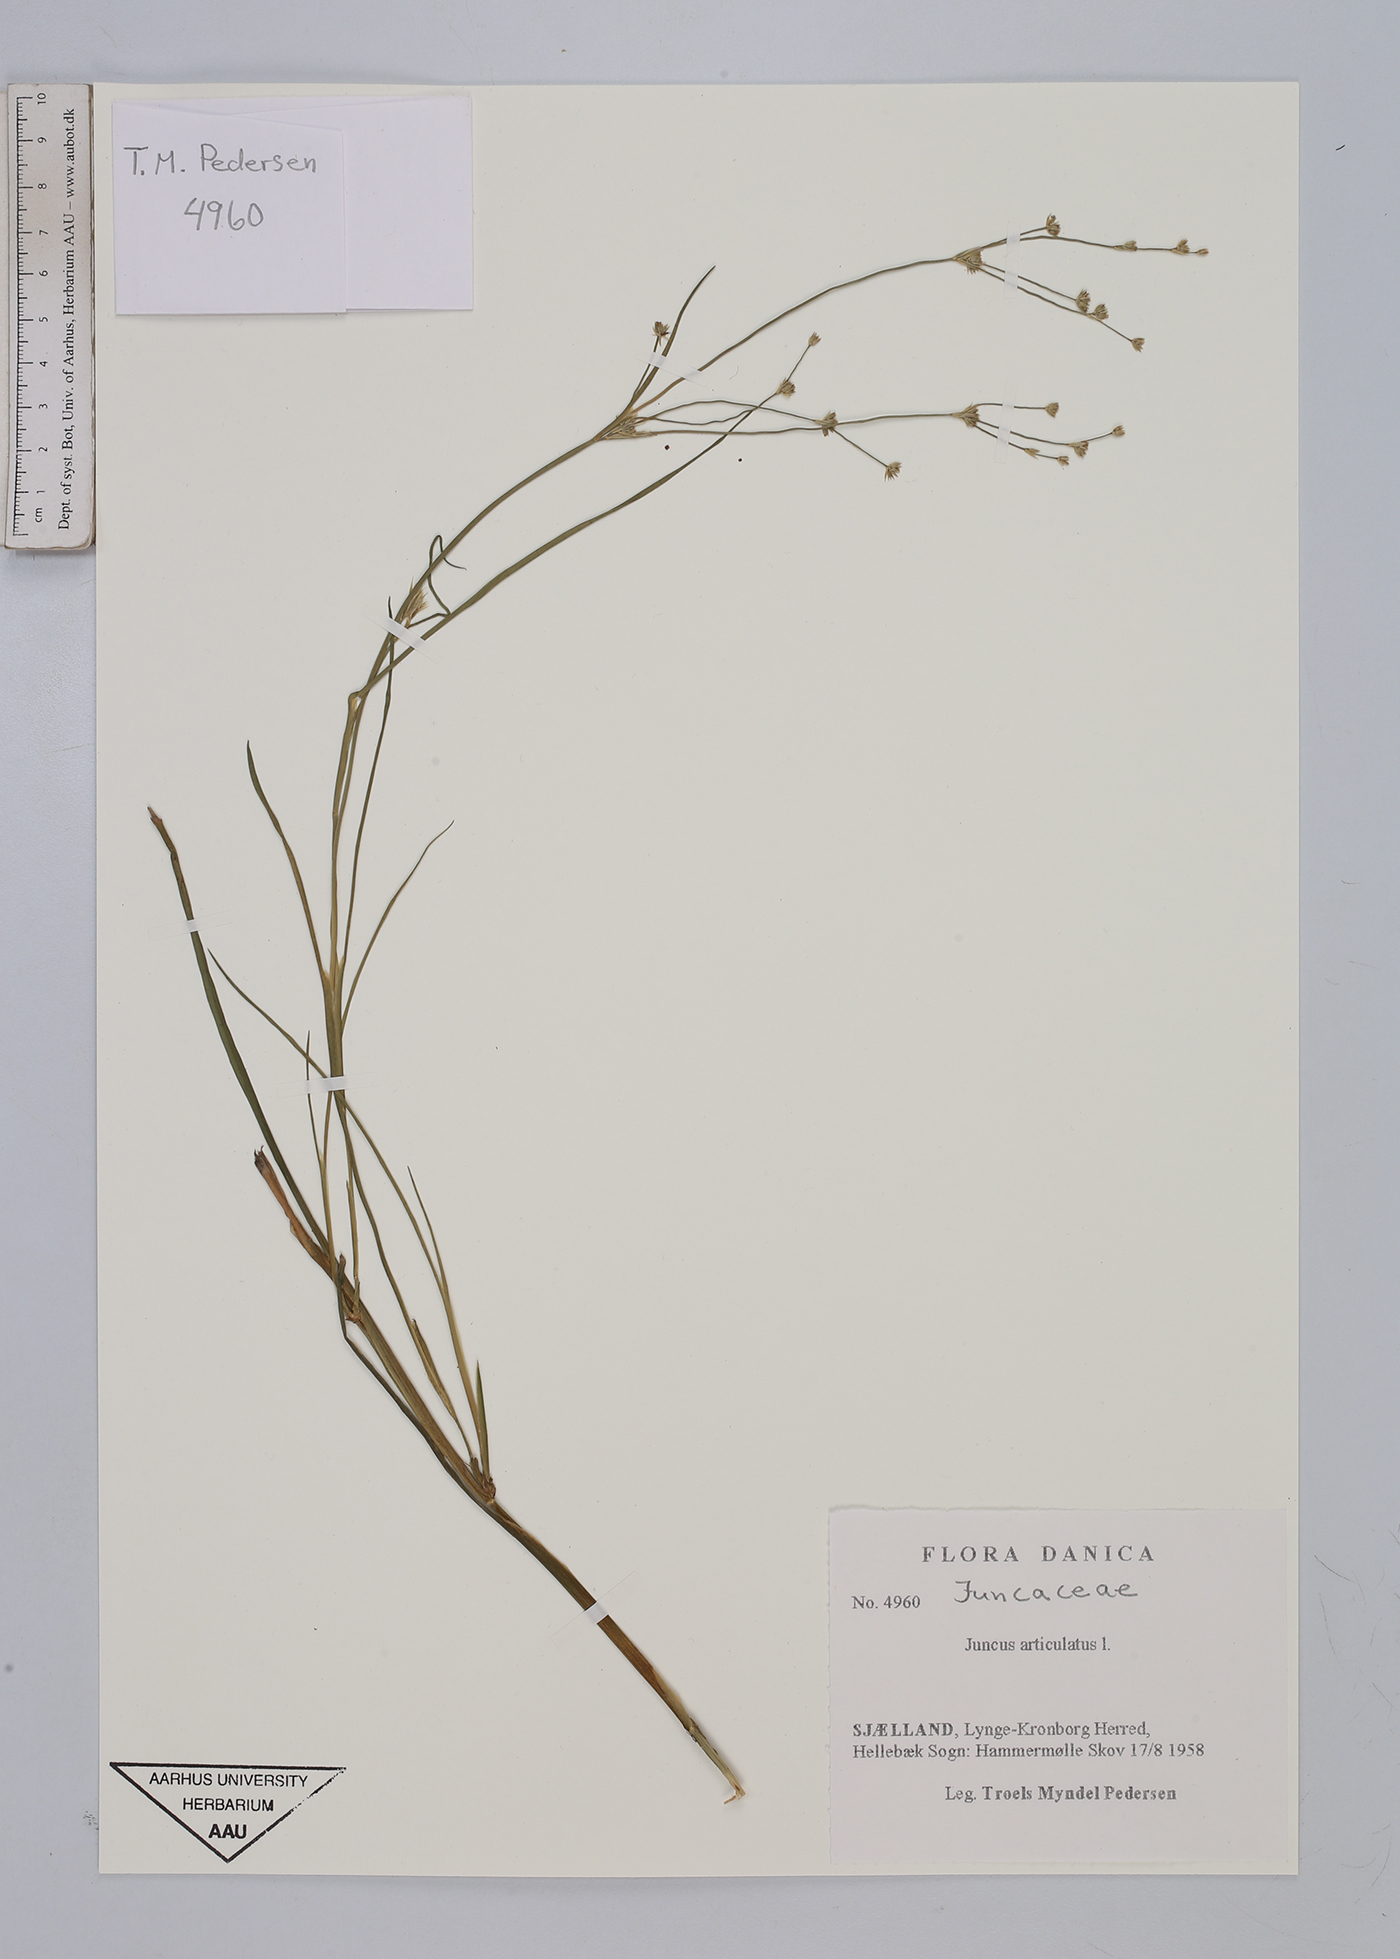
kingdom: Plantae
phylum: Tracheophyta
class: Liliopsida
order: Poales
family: Juncaceae
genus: Juncus
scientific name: Juncus articulatus
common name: Jointed rush
